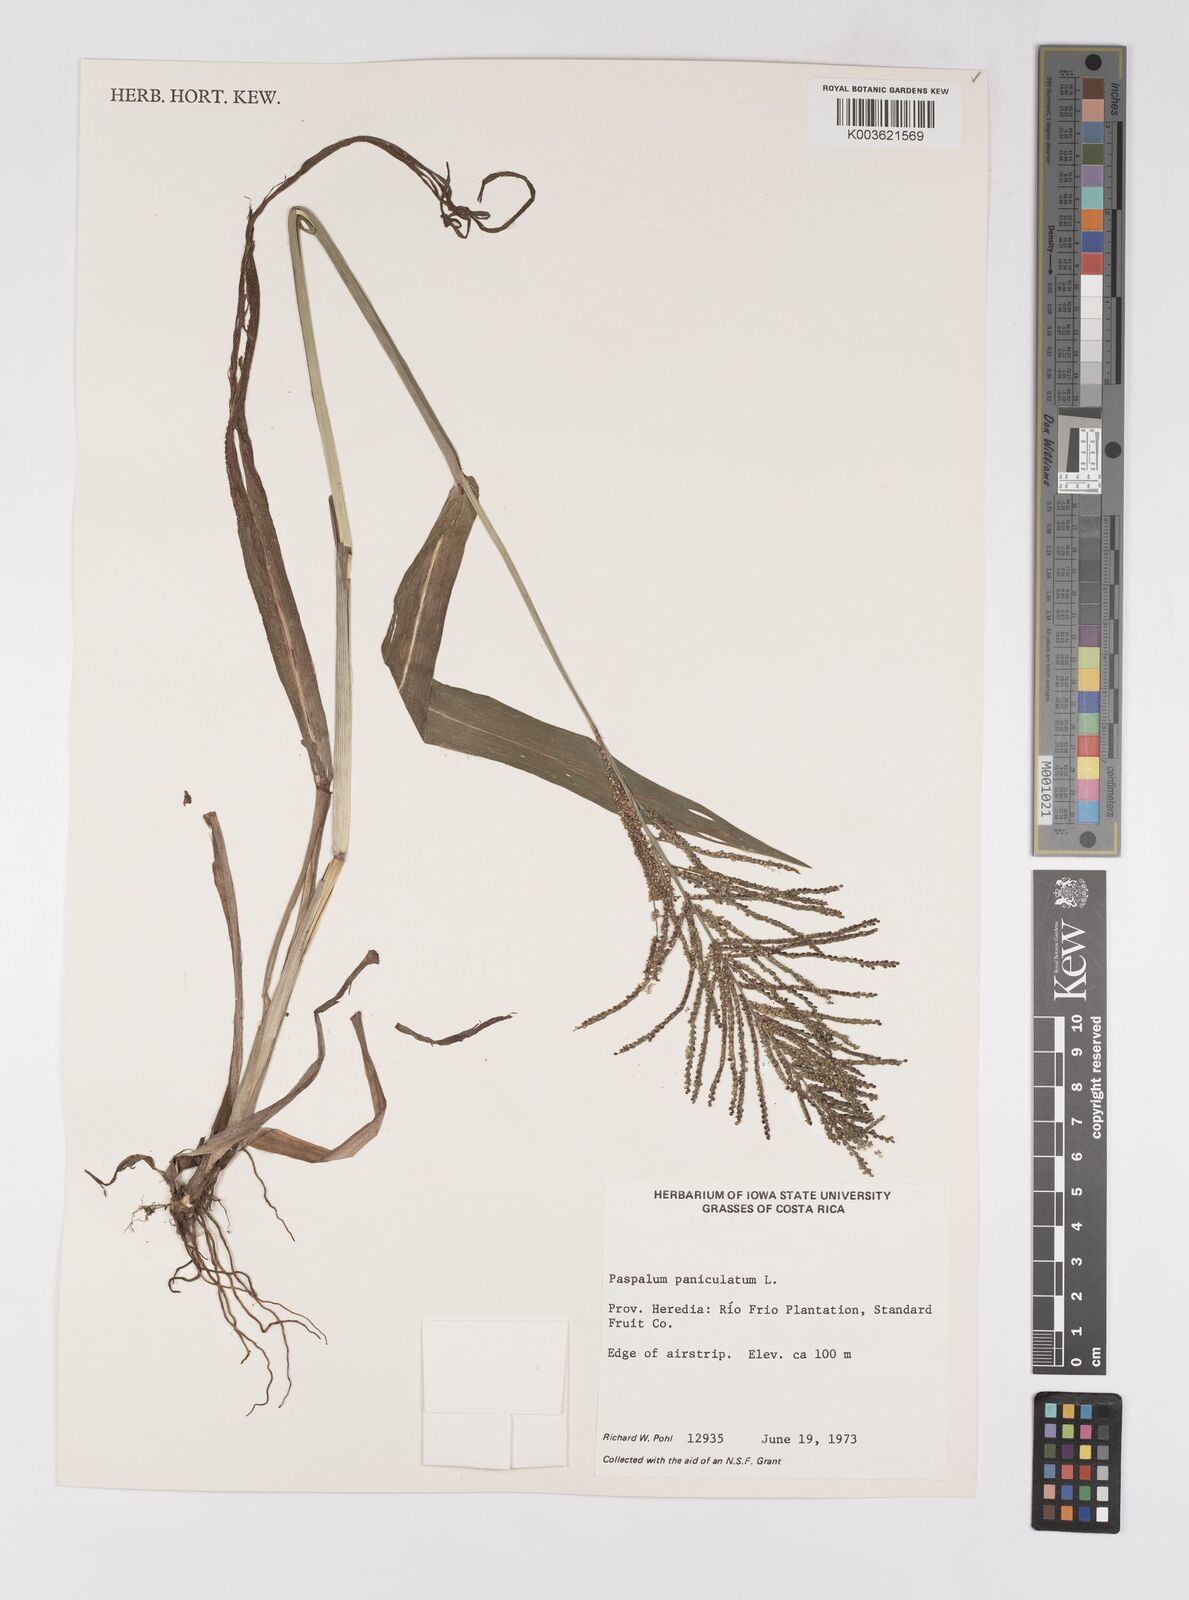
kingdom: Plantae
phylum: Tracheophyta
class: Liliopsida
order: Poales
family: Poaceae
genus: Paspalum
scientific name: Paspalum paniculatum
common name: Arrocillo
